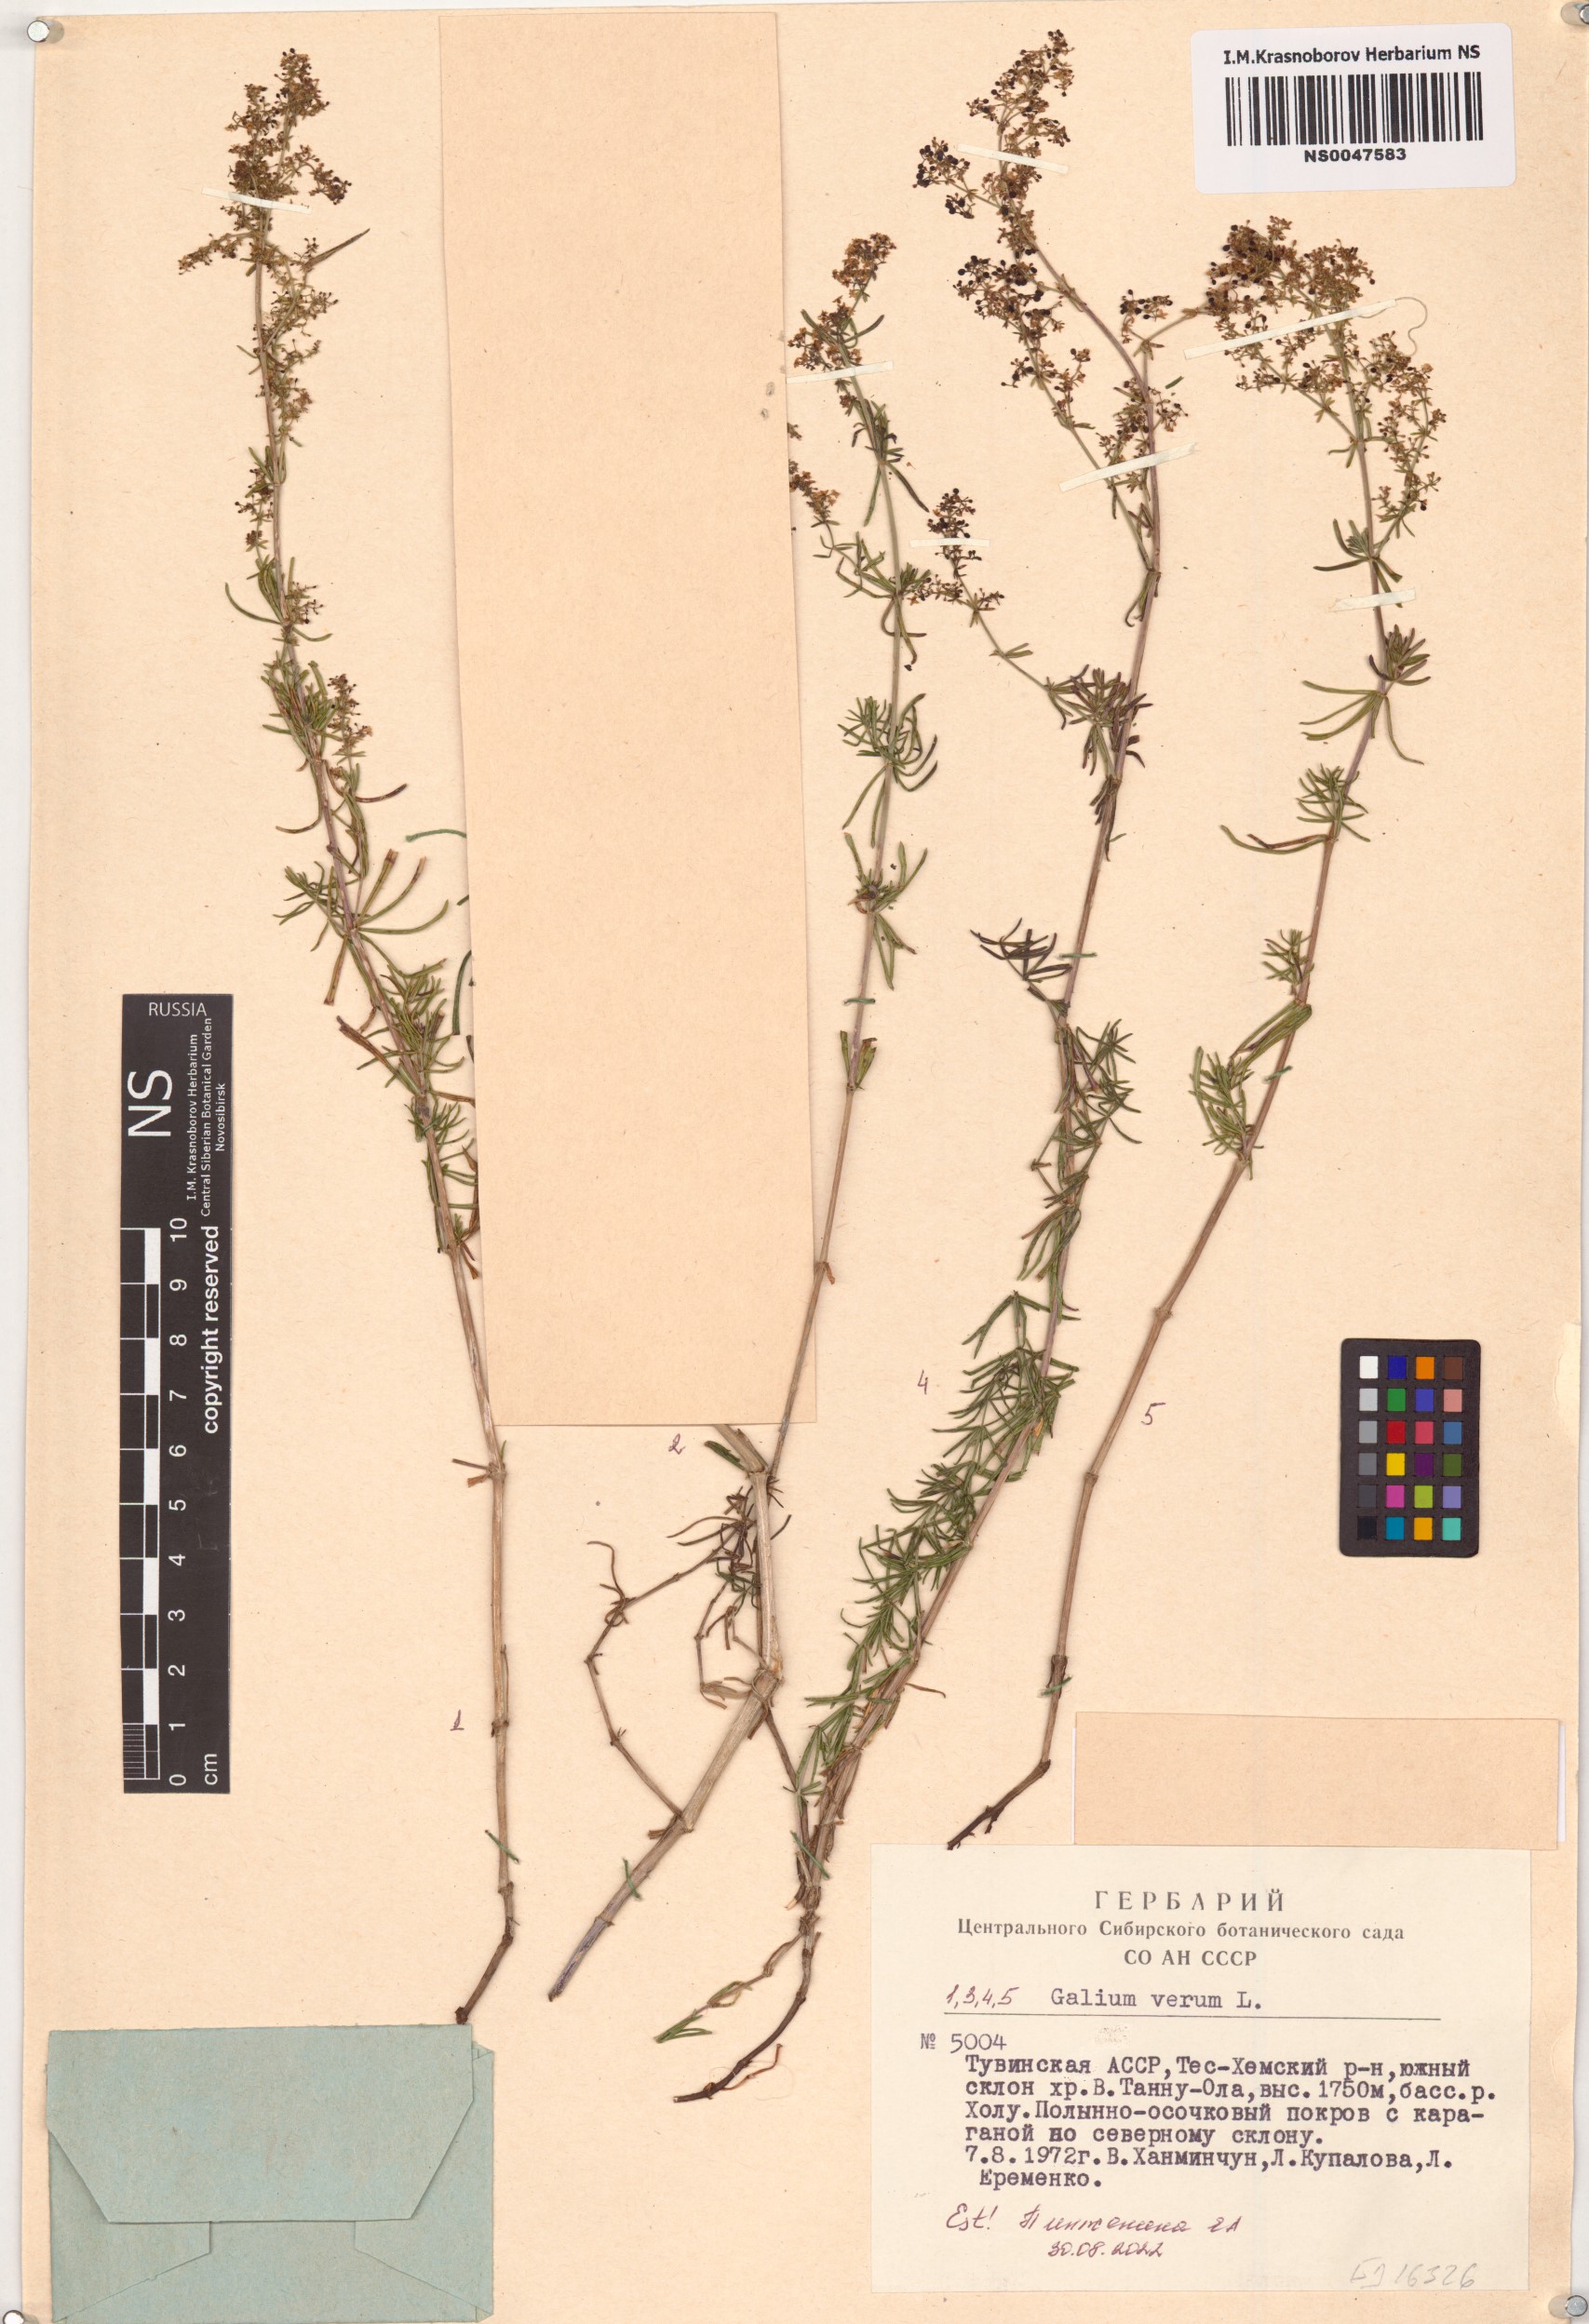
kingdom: Plantae
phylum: Tracheophyta
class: Magnoliopsida
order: Gentianales
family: Rubiaceae
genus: Galium
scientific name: Galium verum
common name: Lady's bedstraw
